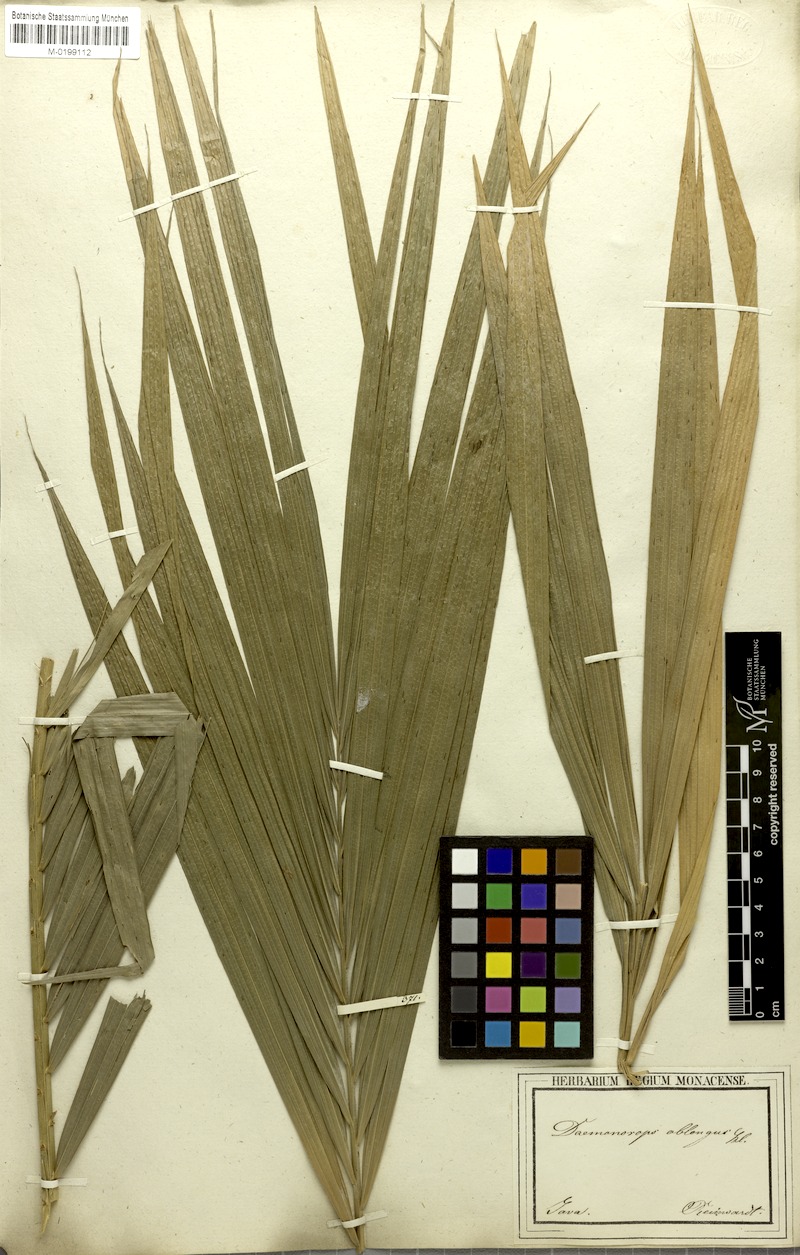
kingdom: Plantae
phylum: Tracheophyta
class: Liliopsida
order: Arecales
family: Arecaceae
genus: Calamus
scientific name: Calamus oblongus
